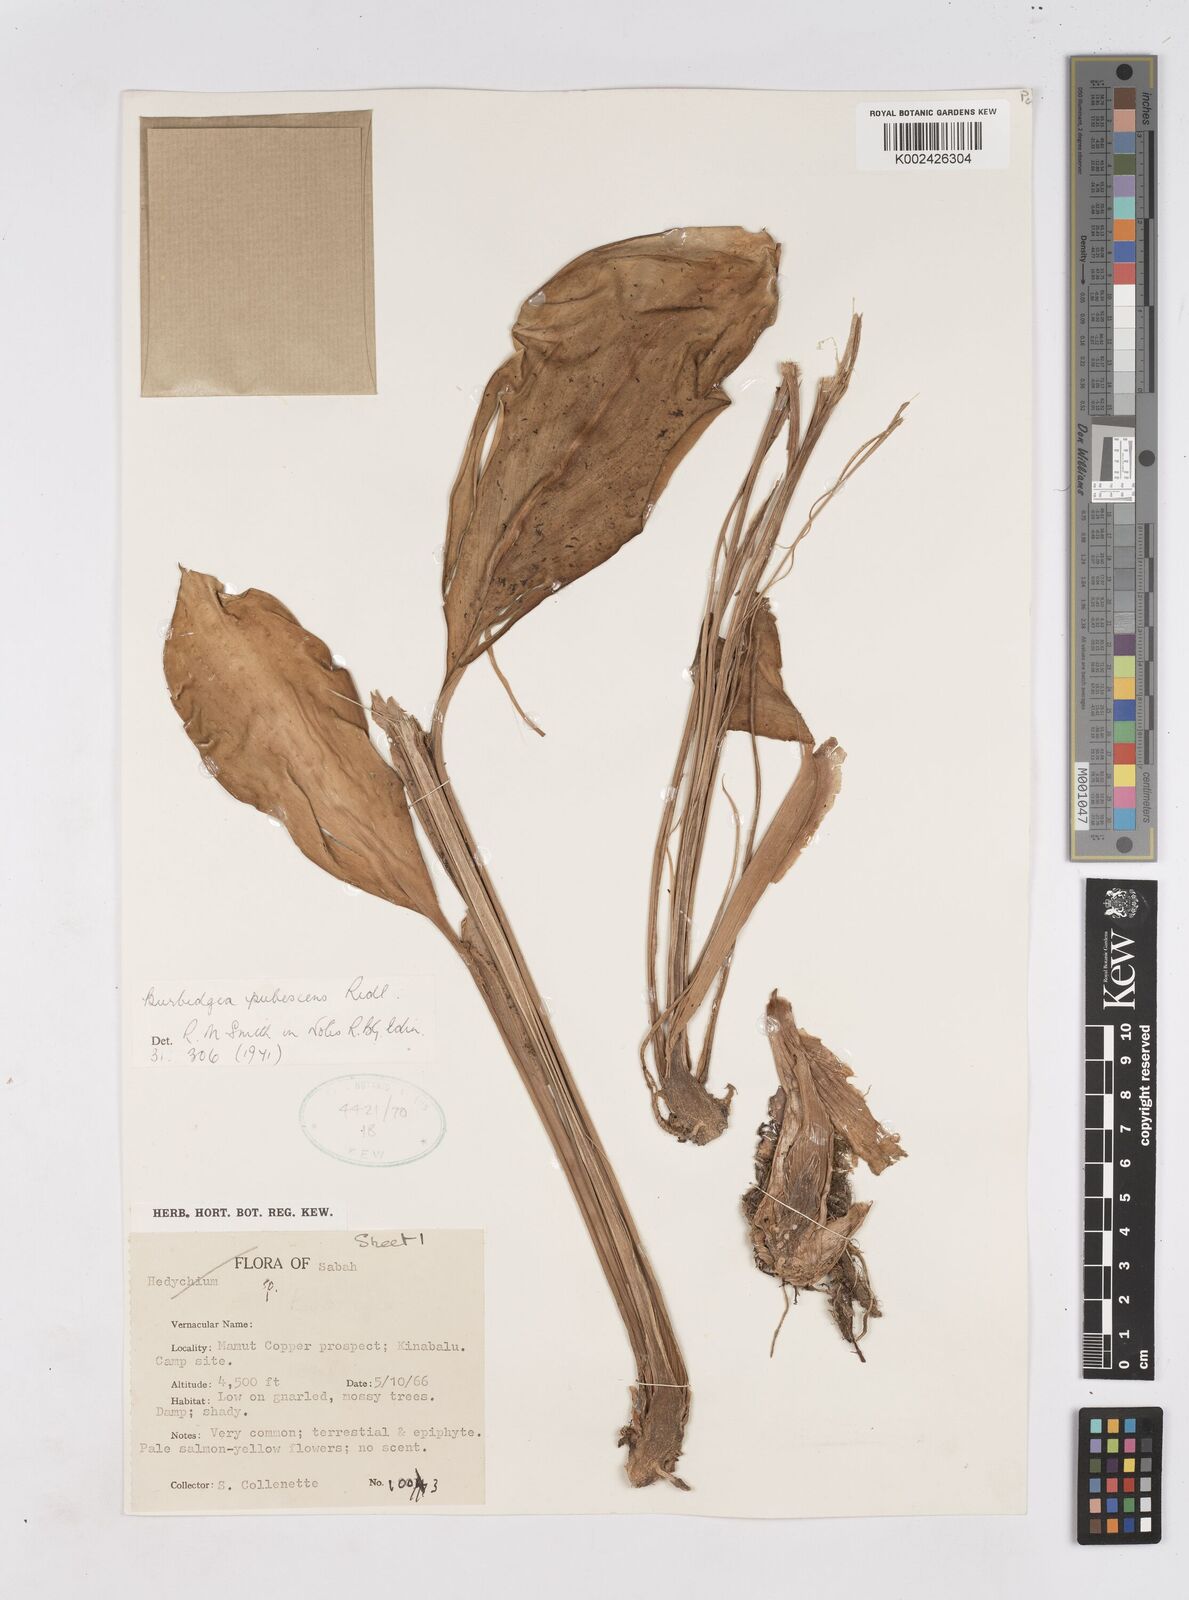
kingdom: Plantae
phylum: Tracheophyta
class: Liliopsida
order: Zingiberales
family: Zingiberaceae
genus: Burbidgea
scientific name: Burbidgea schizocheila
